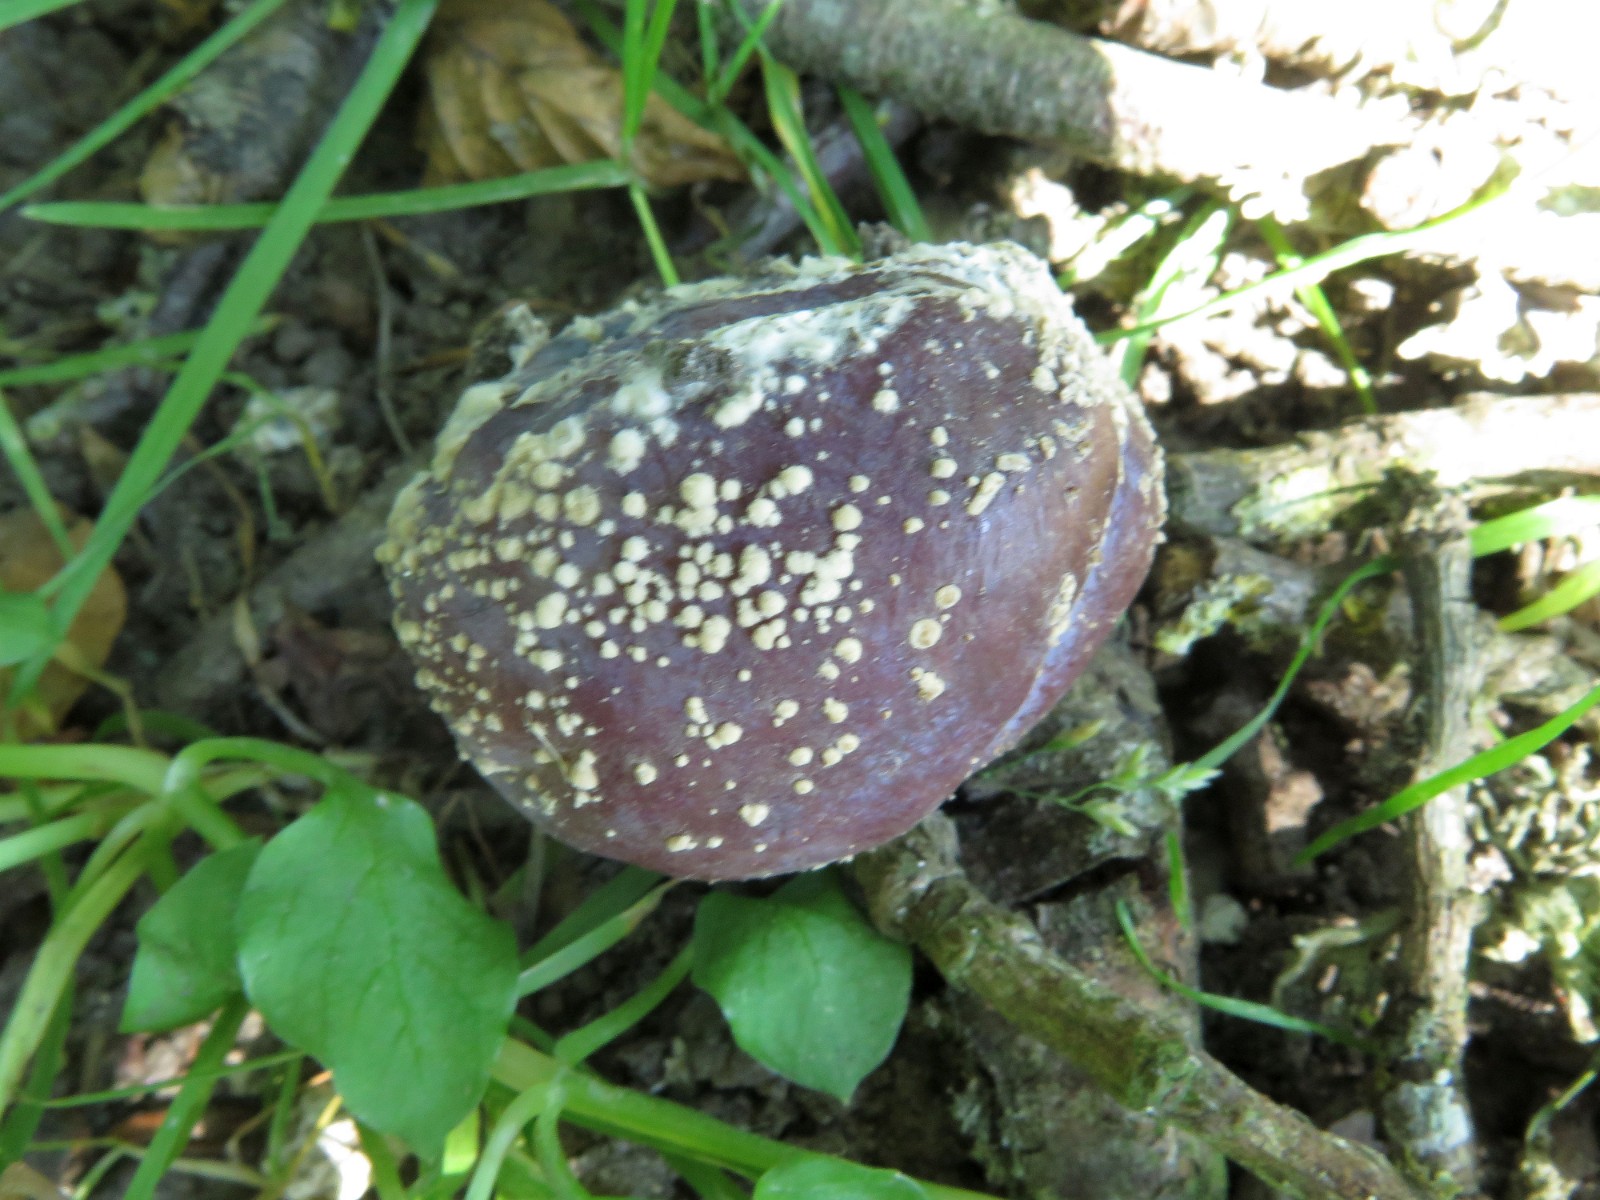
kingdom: Fungi
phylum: Ascomycota
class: Leotiomycetes
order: Helotiales
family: Sclerotiniaceae
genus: Monilinia
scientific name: Monilinia laxa
